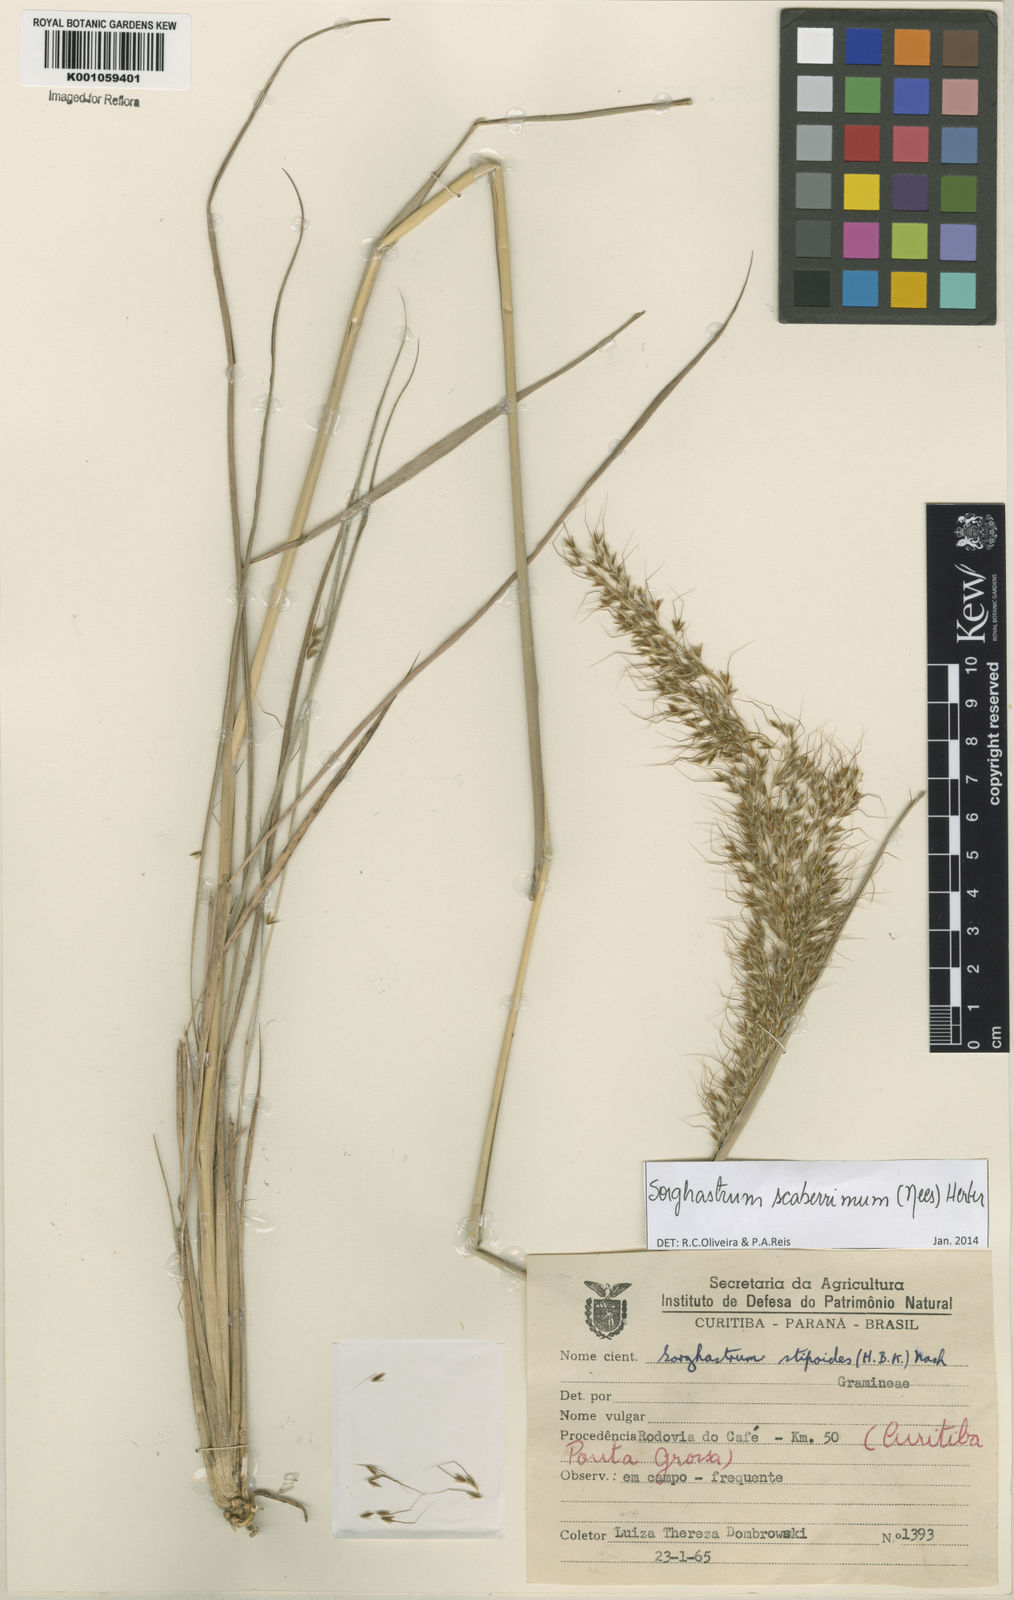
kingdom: Plantae
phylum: Tracheophyta
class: Liliopsida
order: Poales
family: Poaceae
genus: Sorghastrum
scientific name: Sorghastrum scaberrimum
